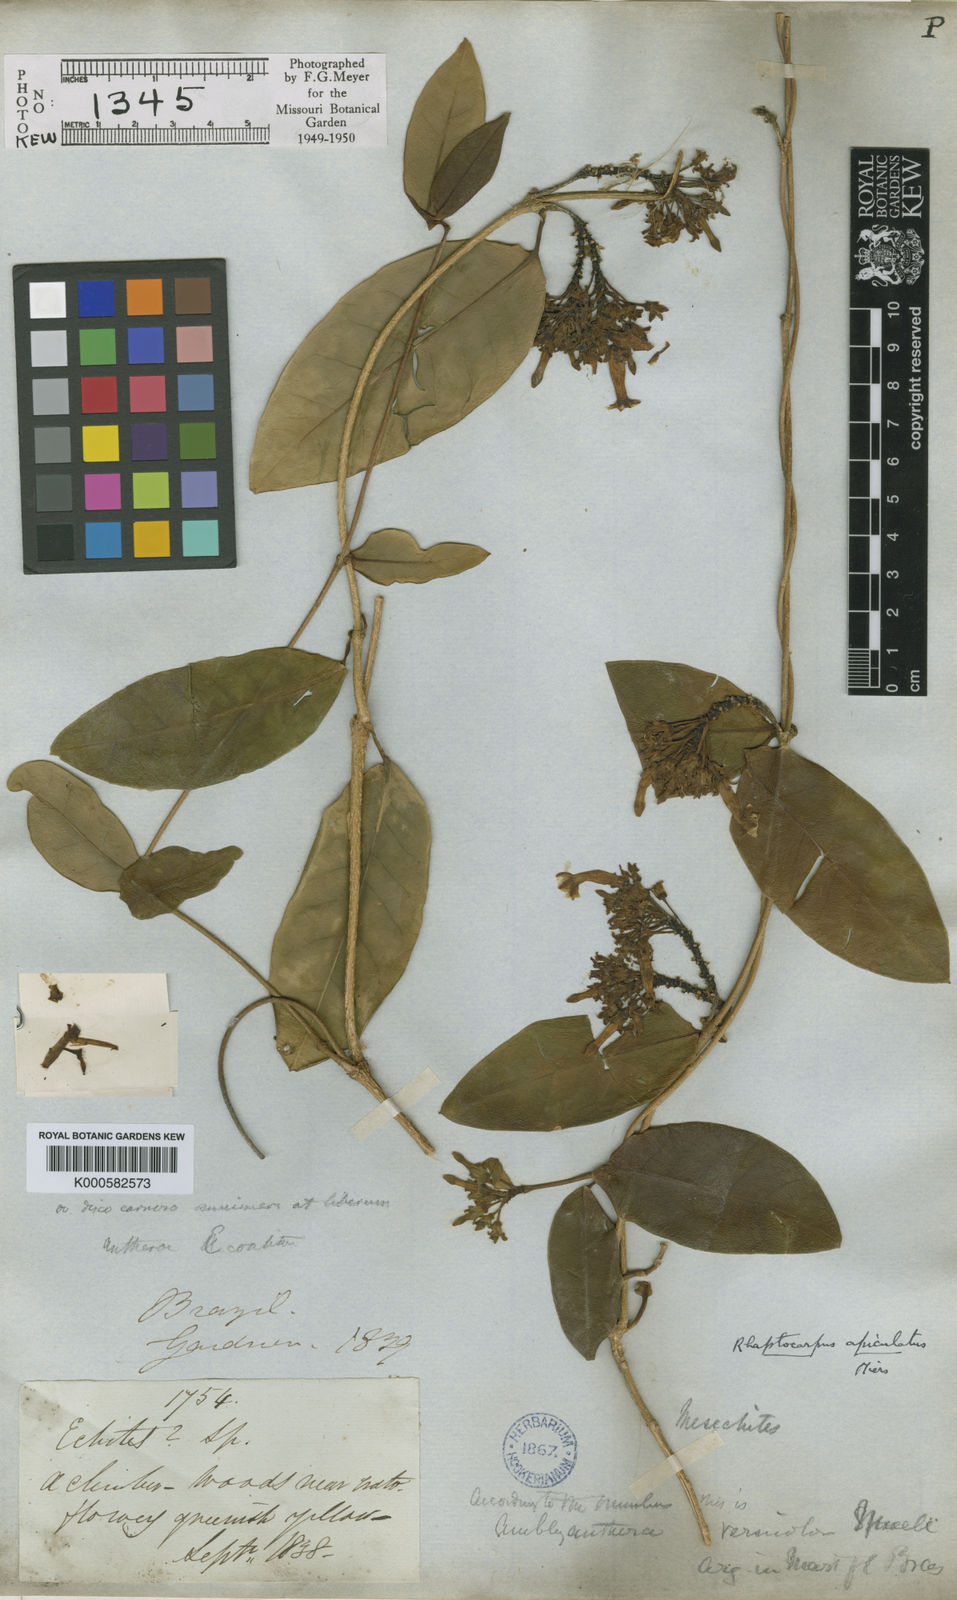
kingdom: Plantae
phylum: Tracheophyta
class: Magnoliopsida
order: Gentianales
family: Apocynaceae
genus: Prestonia
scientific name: Prestonia coalita
